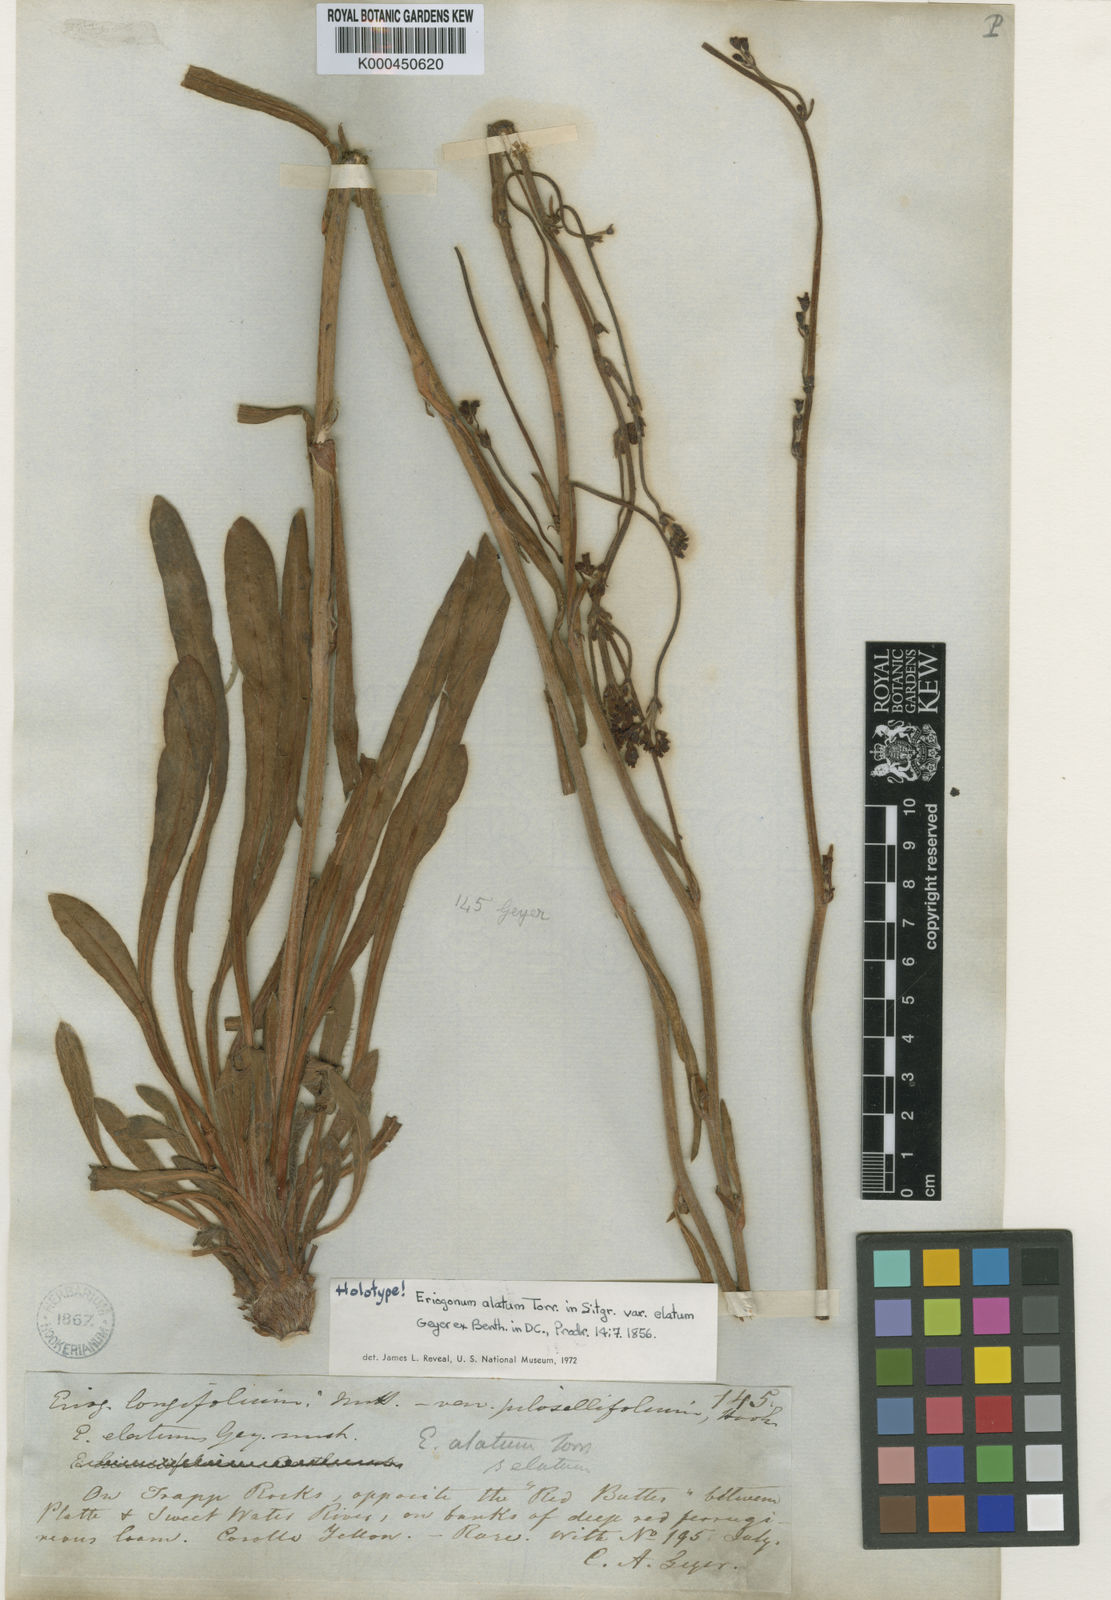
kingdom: Plantae
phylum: Tracheophyta
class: Magnoliopsida
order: Caryophyllales
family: Polygonaceae
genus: Eriogonum
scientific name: Eriogonum alatum
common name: Winged eriogonum
